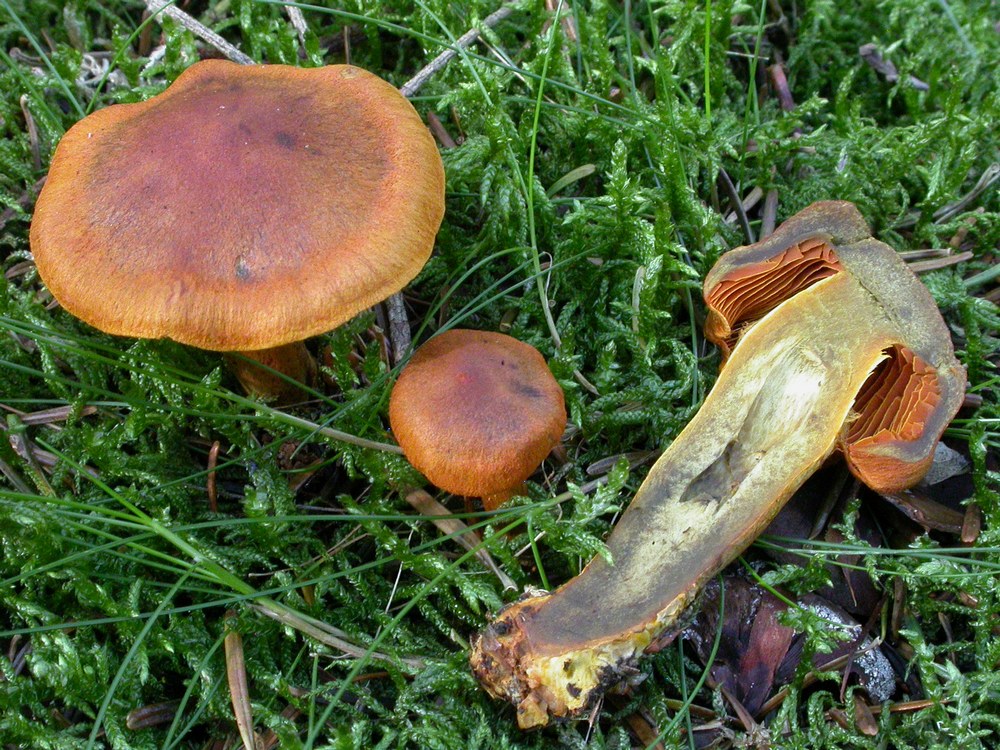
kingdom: Fungi
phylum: Basidiomycota
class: Agaricomycetes
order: Agaricales
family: Cortinariaceae
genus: Cortinarius
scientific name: Cortinarius malicorius
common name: grønkødet slørhat
